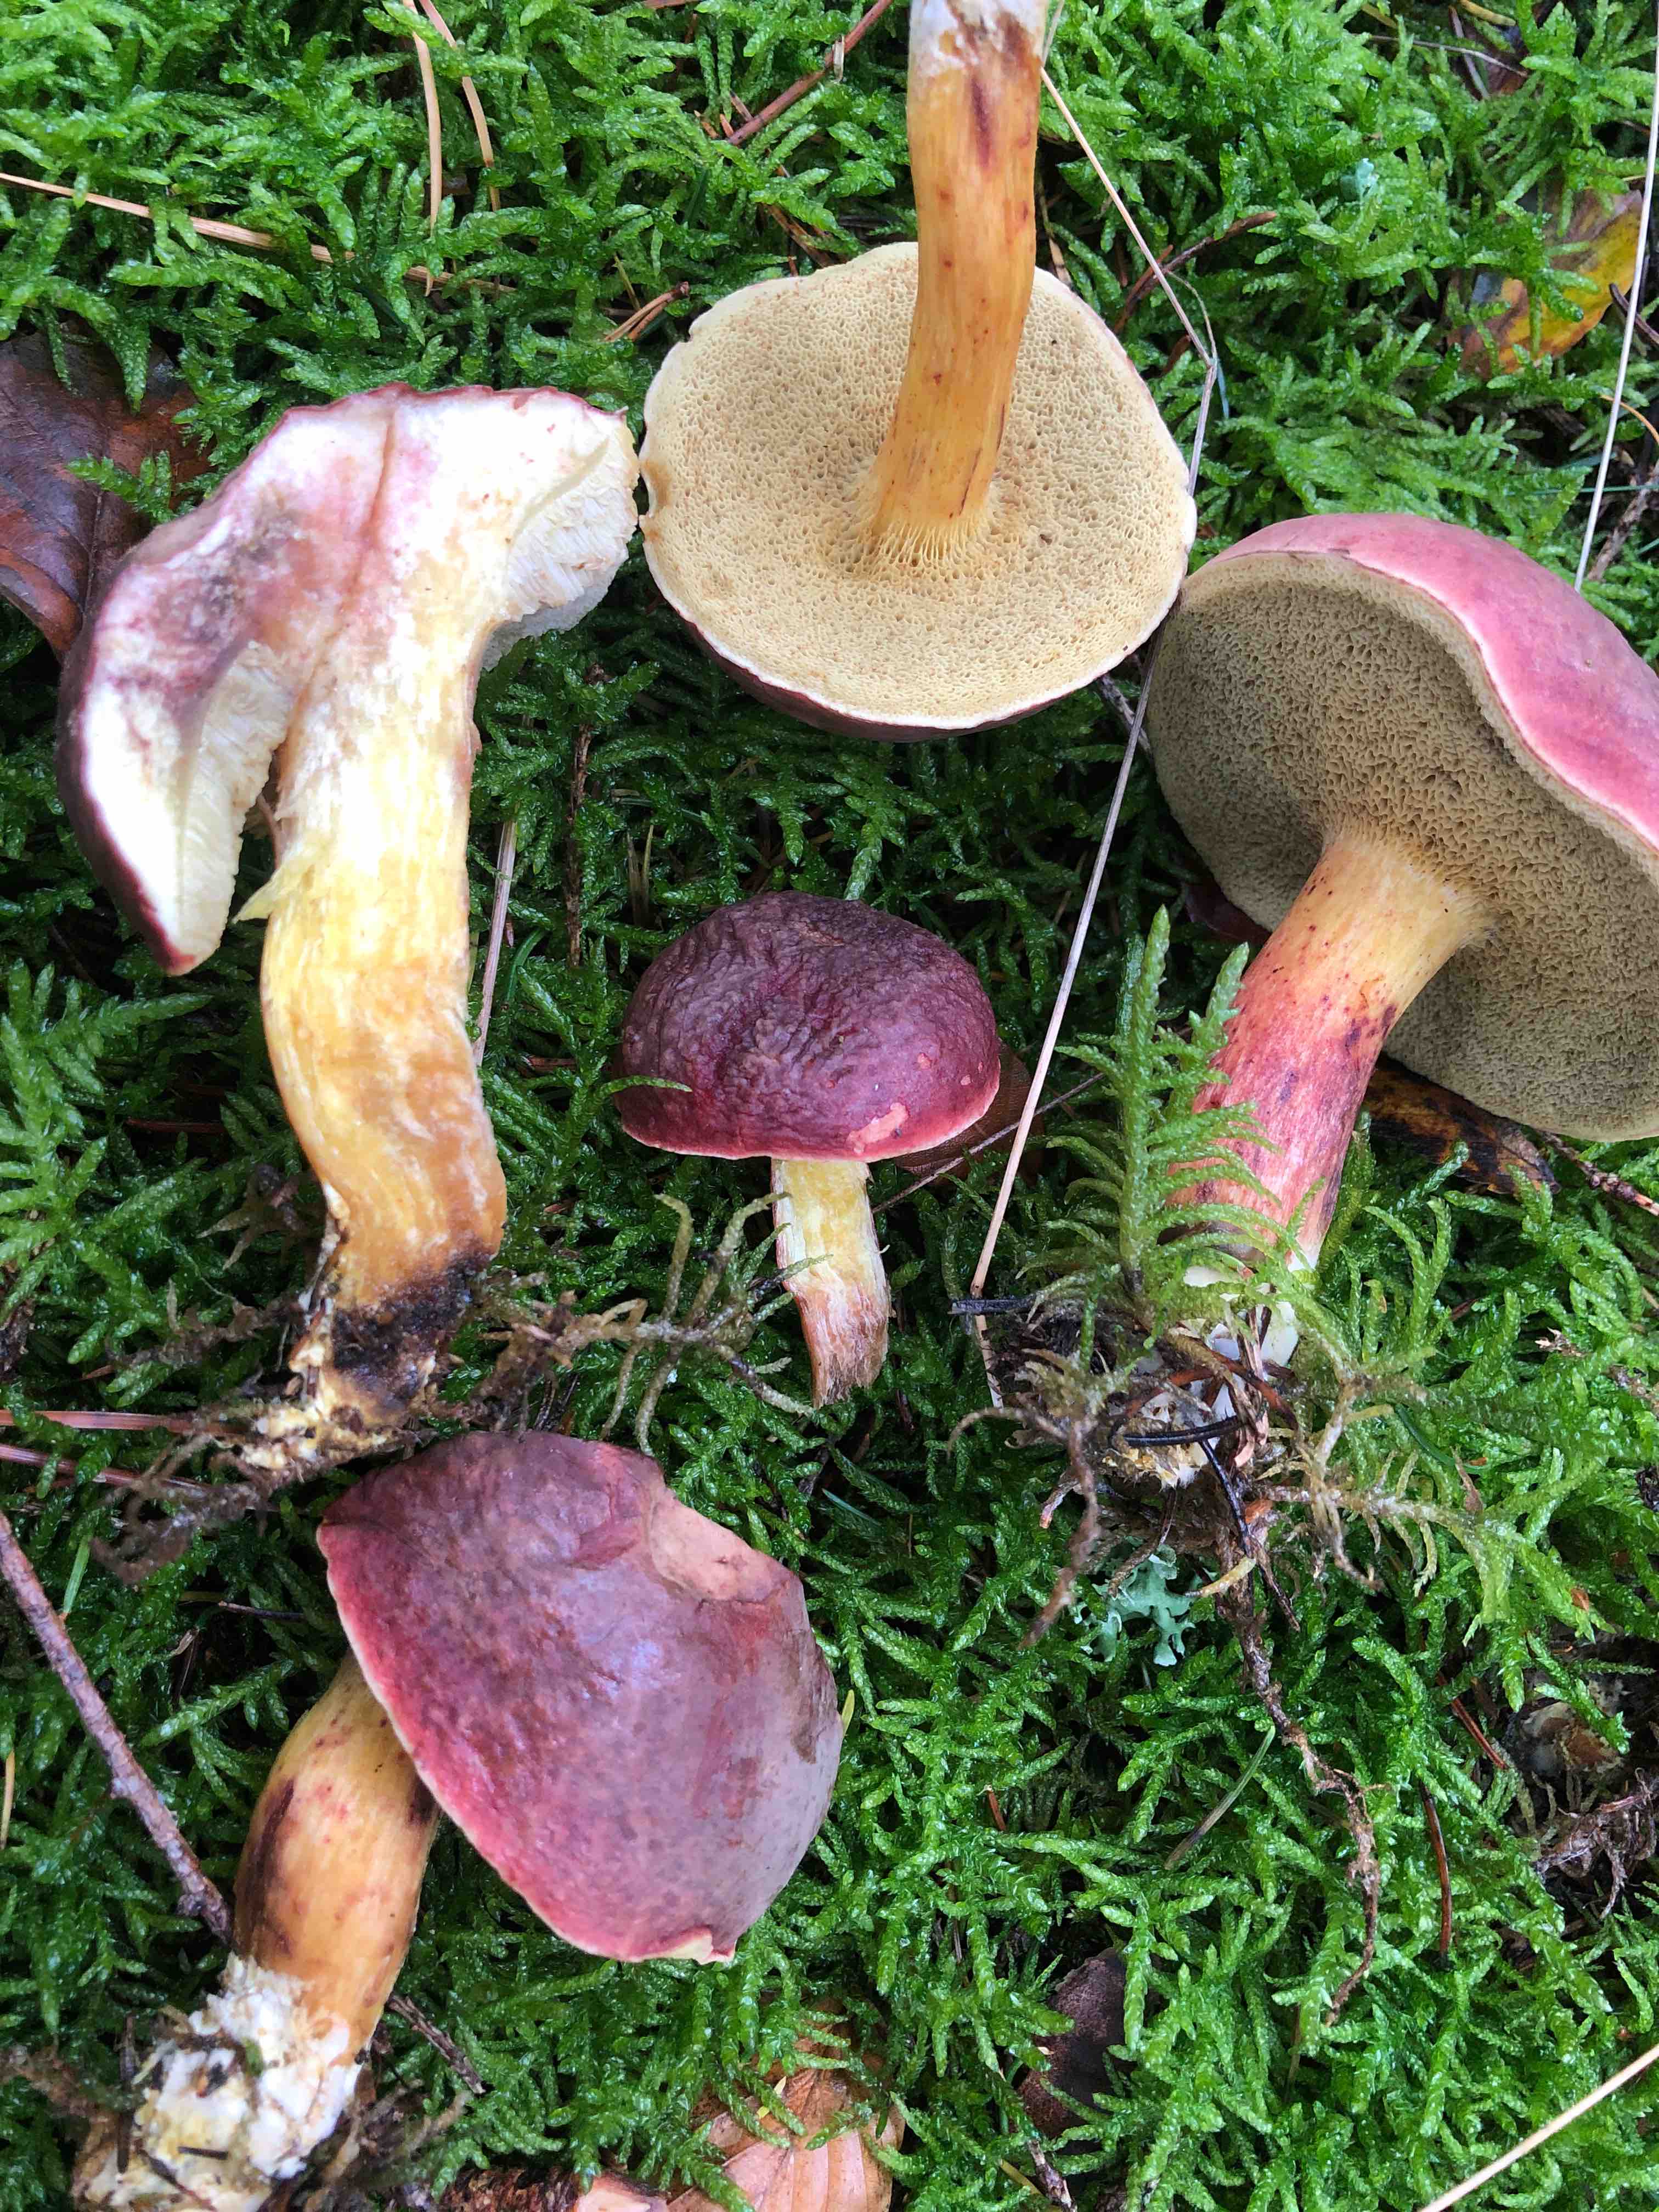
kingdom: Fungi
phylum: Basidiomycota
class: Agaricomycetes
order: Boletales
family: Boletaceae
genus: Xerocomellus
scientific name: Xerocomellus pruinatus
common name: dugget rørhat
